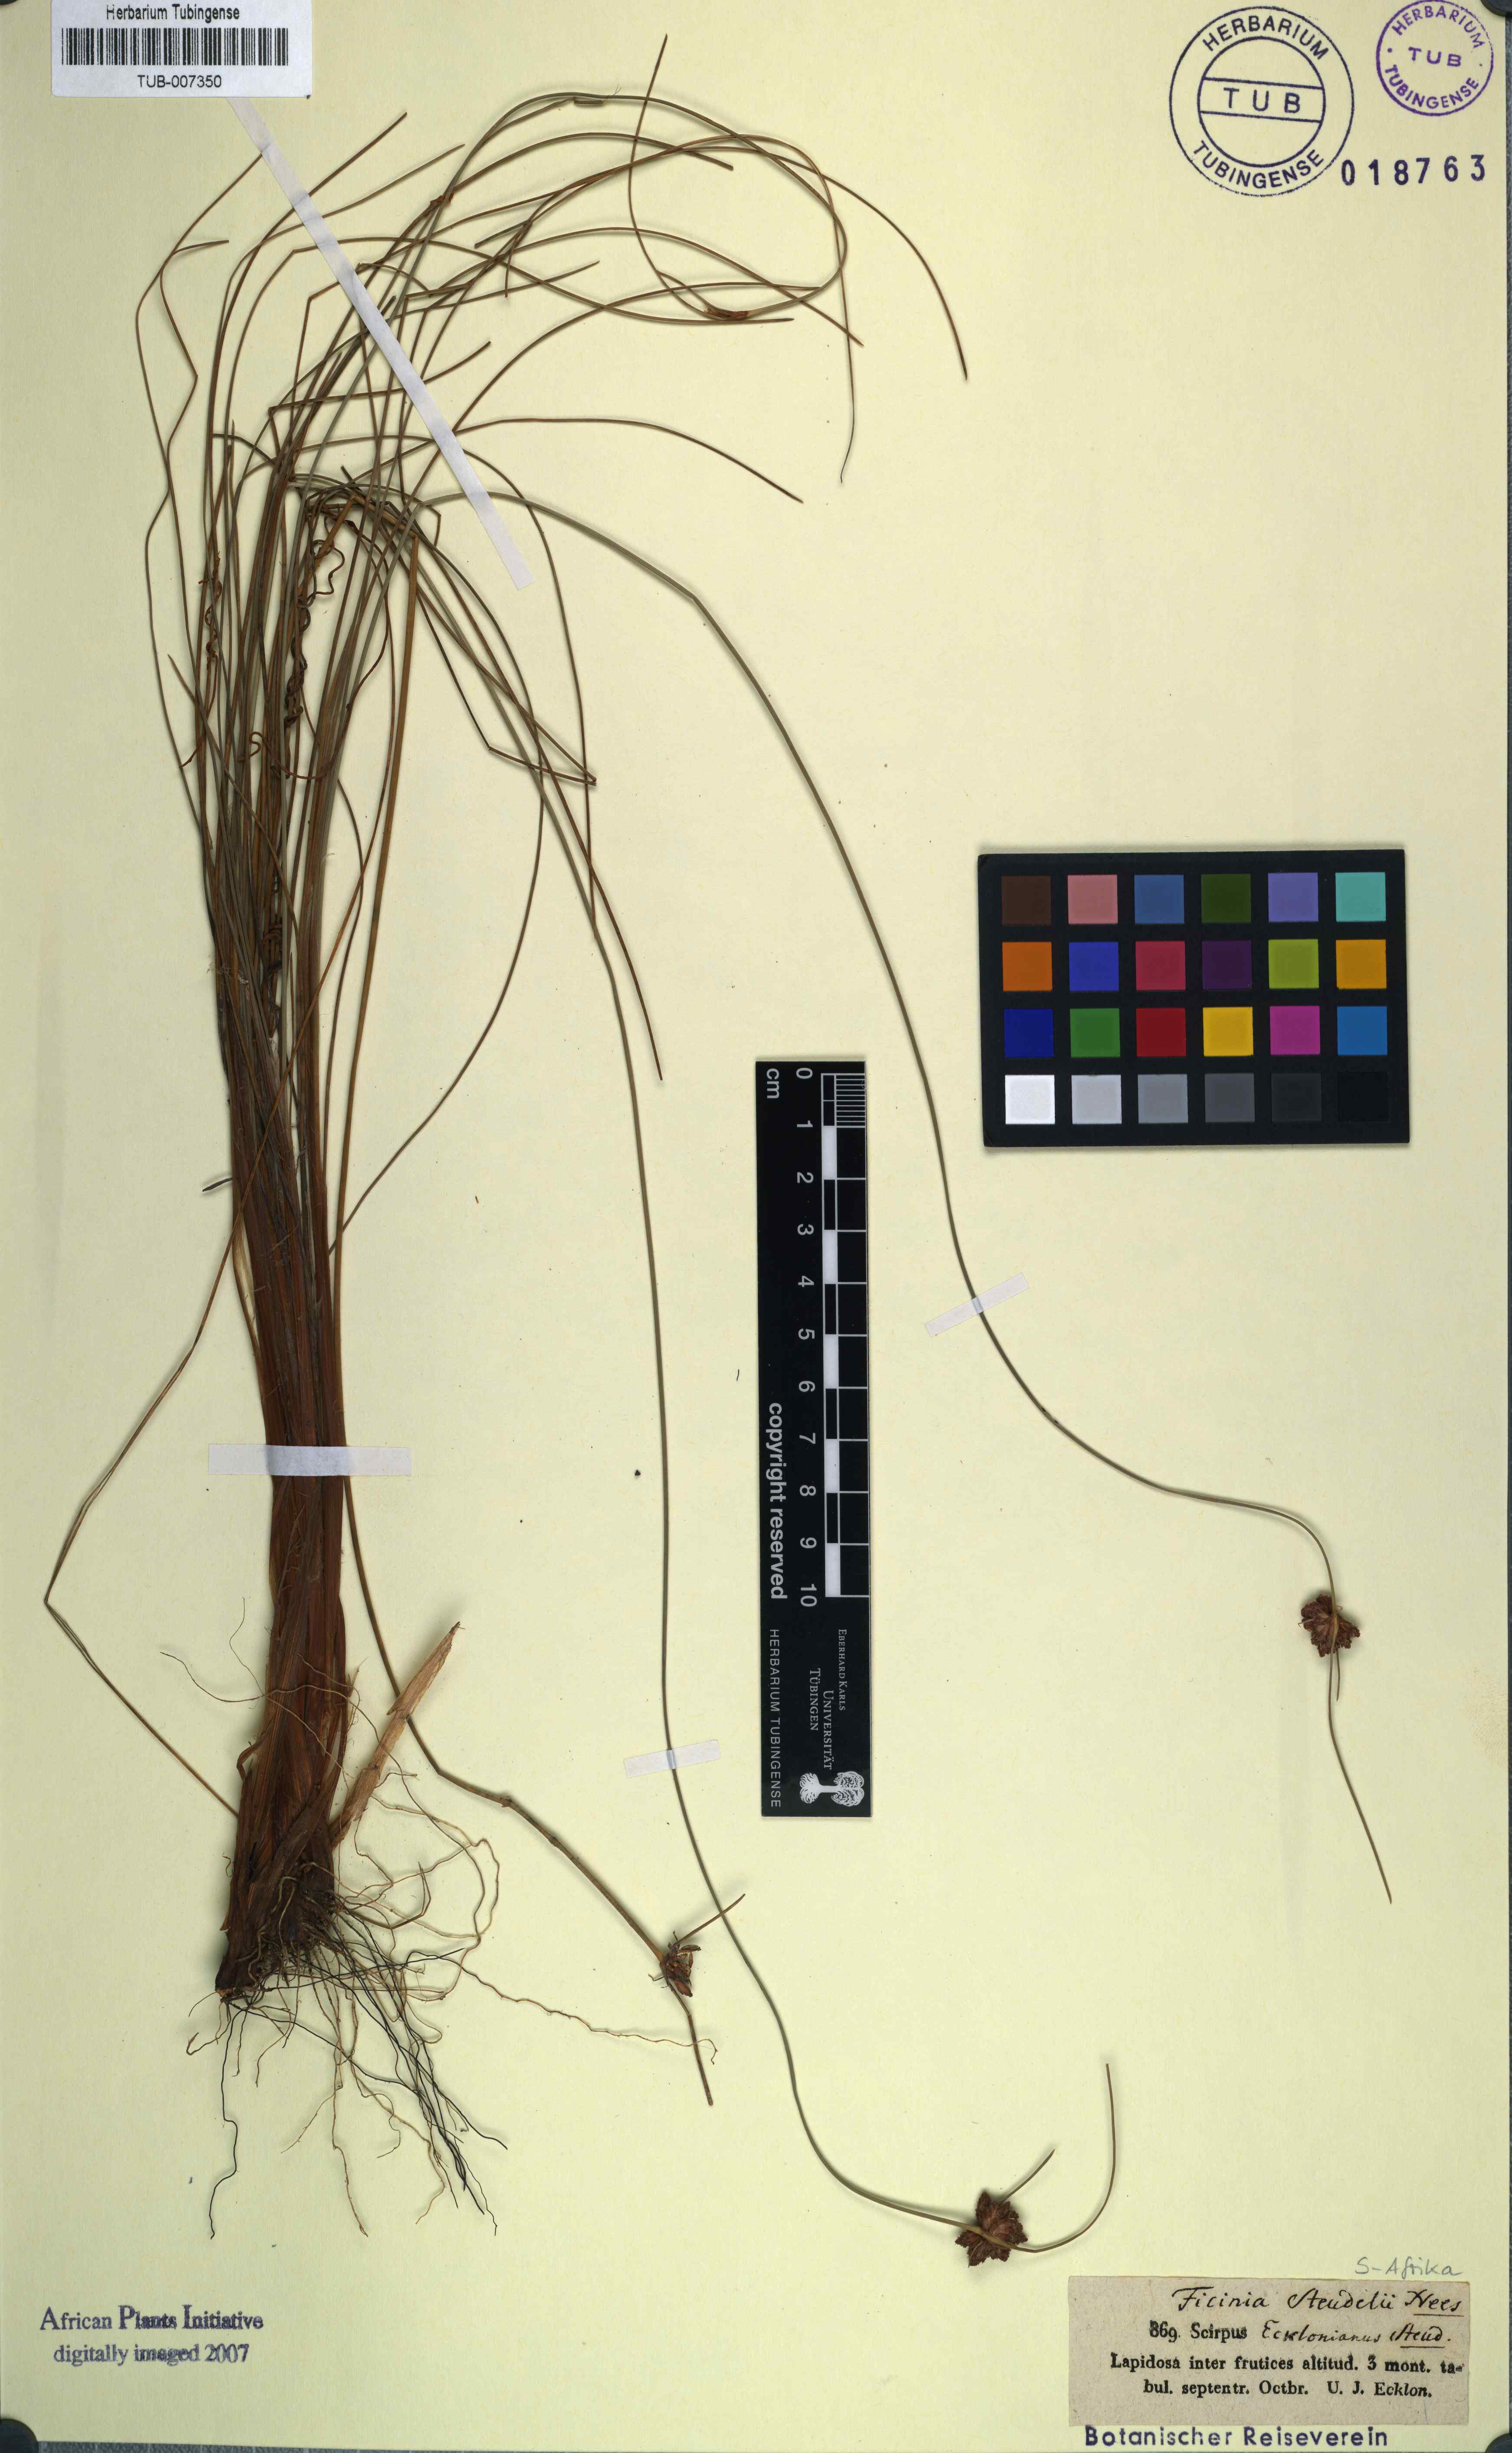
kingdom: Plantae
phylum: Tracheophyta
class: Liliopsida
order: Poales
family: Cyperaceae
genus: Ficinia
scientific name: Ficinia ecklonea
